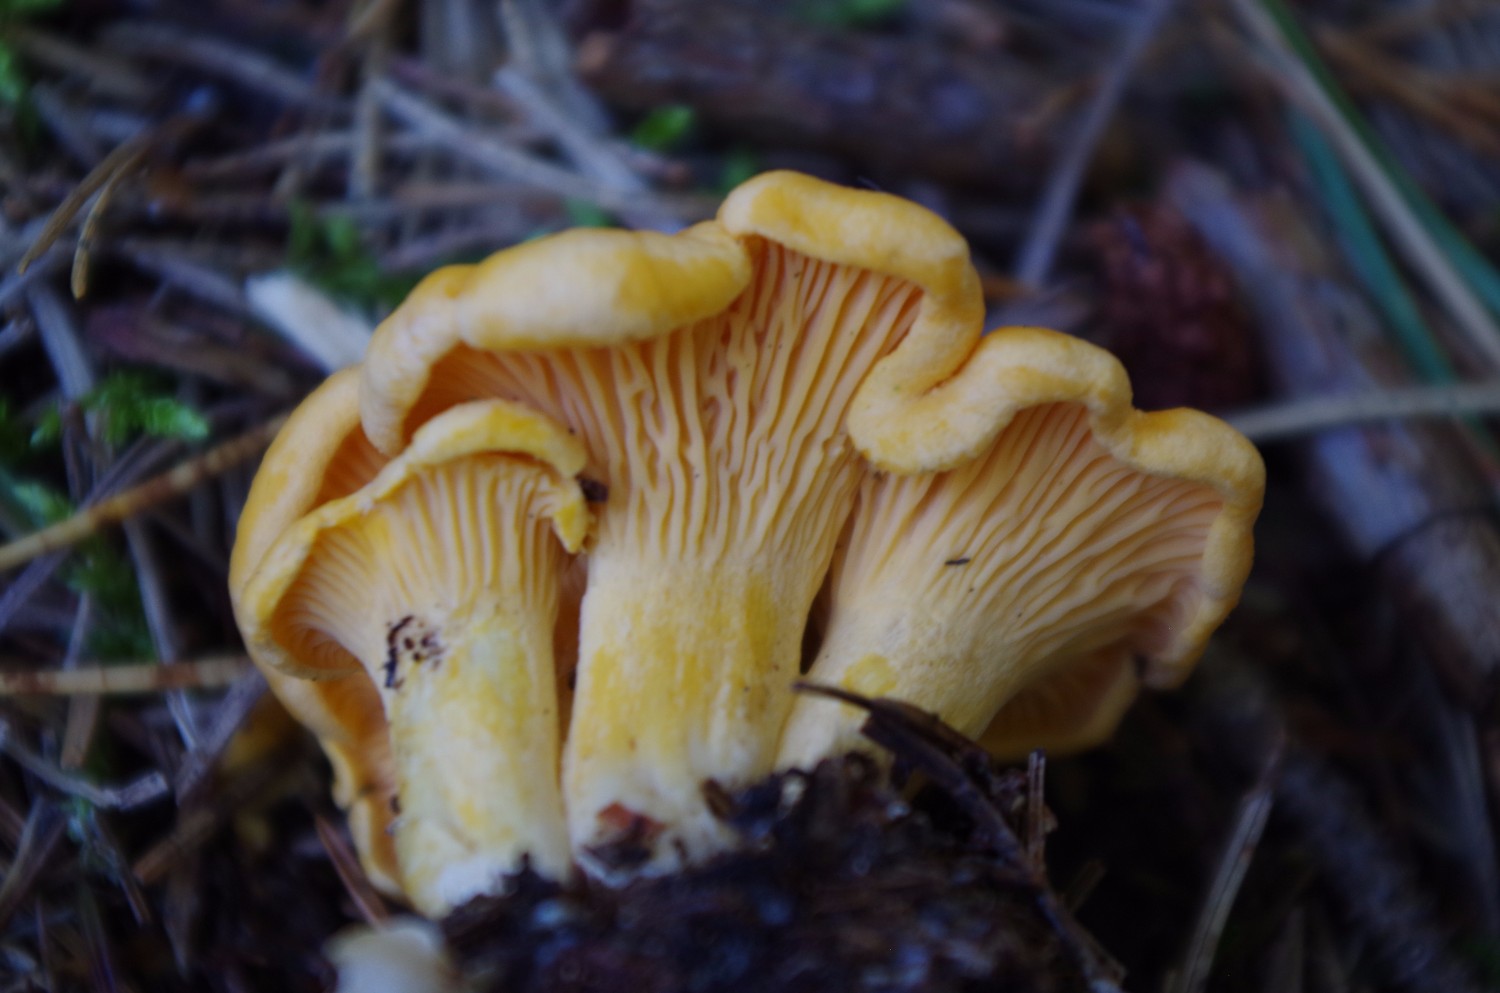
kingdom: Fungi
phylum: Basidiomycota
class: Agaricomycetes
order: Cantharellales
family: Hydnaceae
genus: Cantharellus
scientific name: Cantharellus cibarius
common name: almindelig kantarel
